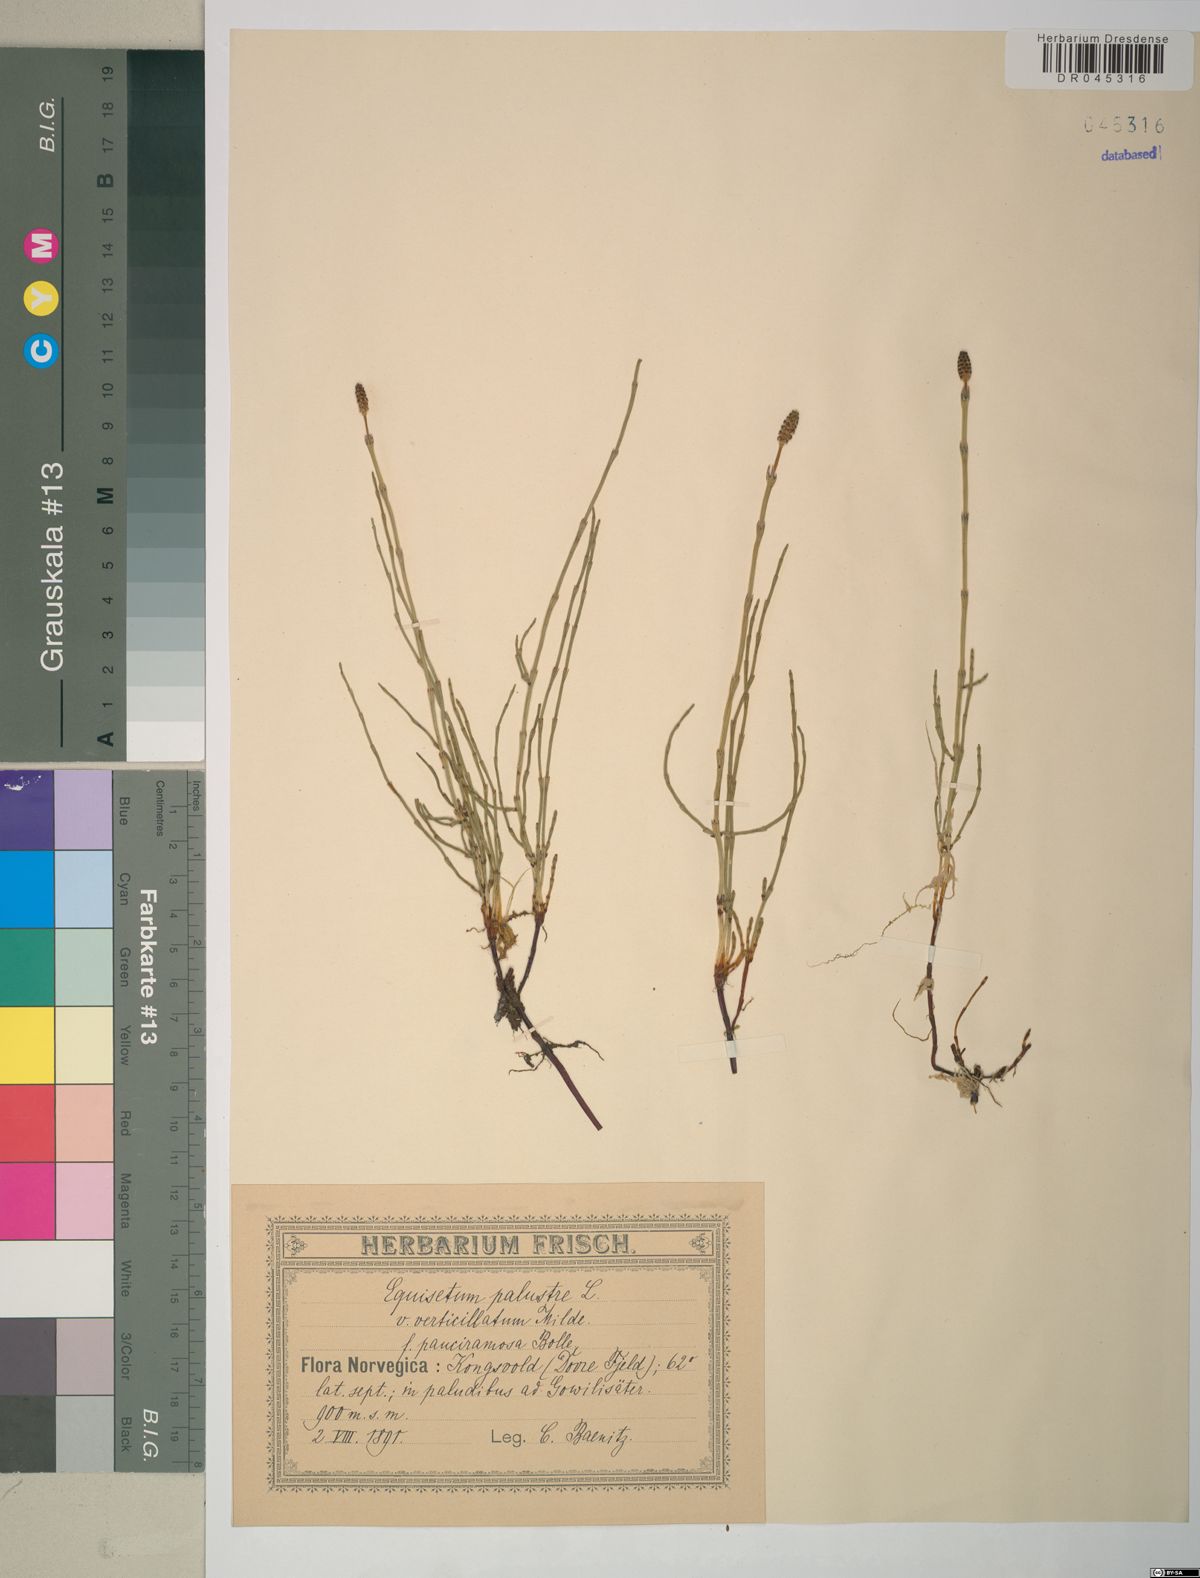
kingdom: Plantae
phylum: Tracheophyta
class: Polypodiopsida
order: Equisetales
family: Equisetaceae
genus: Equisetum
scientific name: Equisetum palustre
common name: Marsh horsetail
